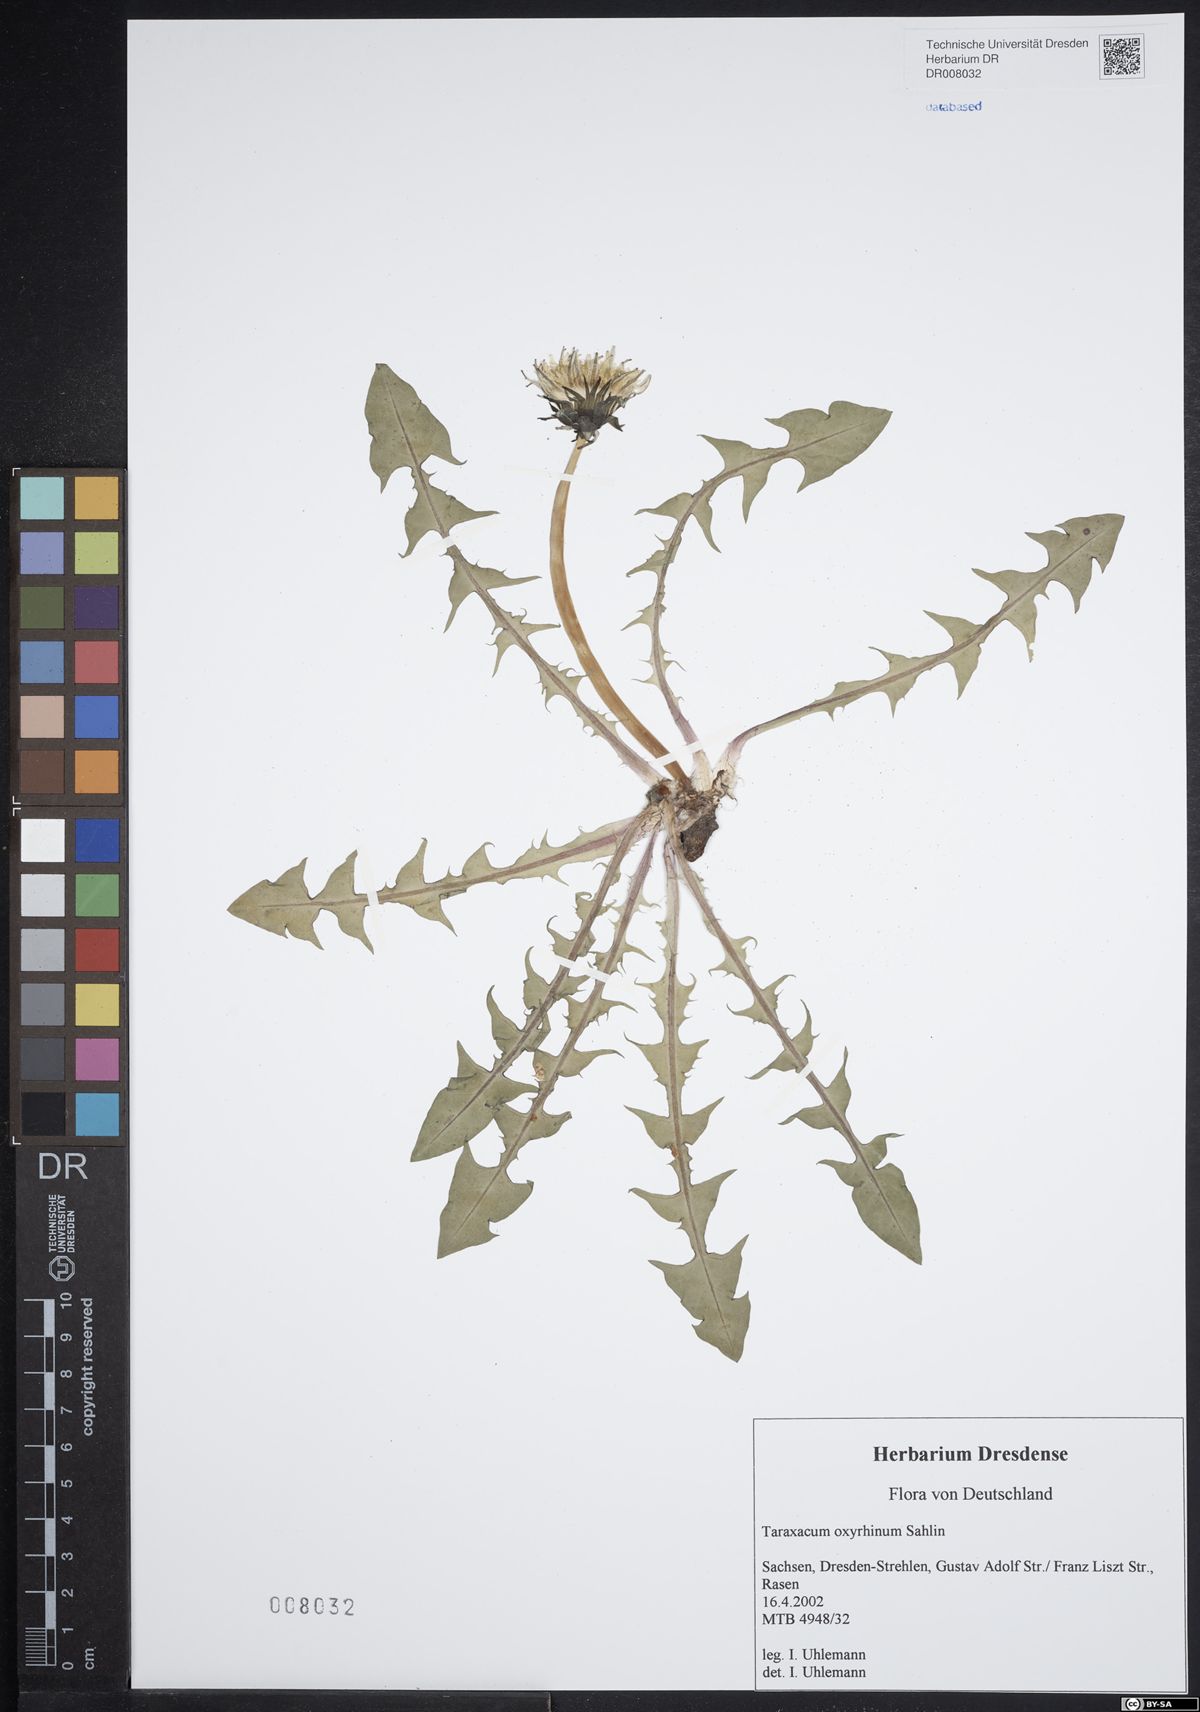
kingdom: Plantae
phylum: Tracheophyta
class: Magnoliopsida
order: Asterales
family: Asteraceae
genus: Taraxacum
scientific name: Taraxacum oxyrrhinum
